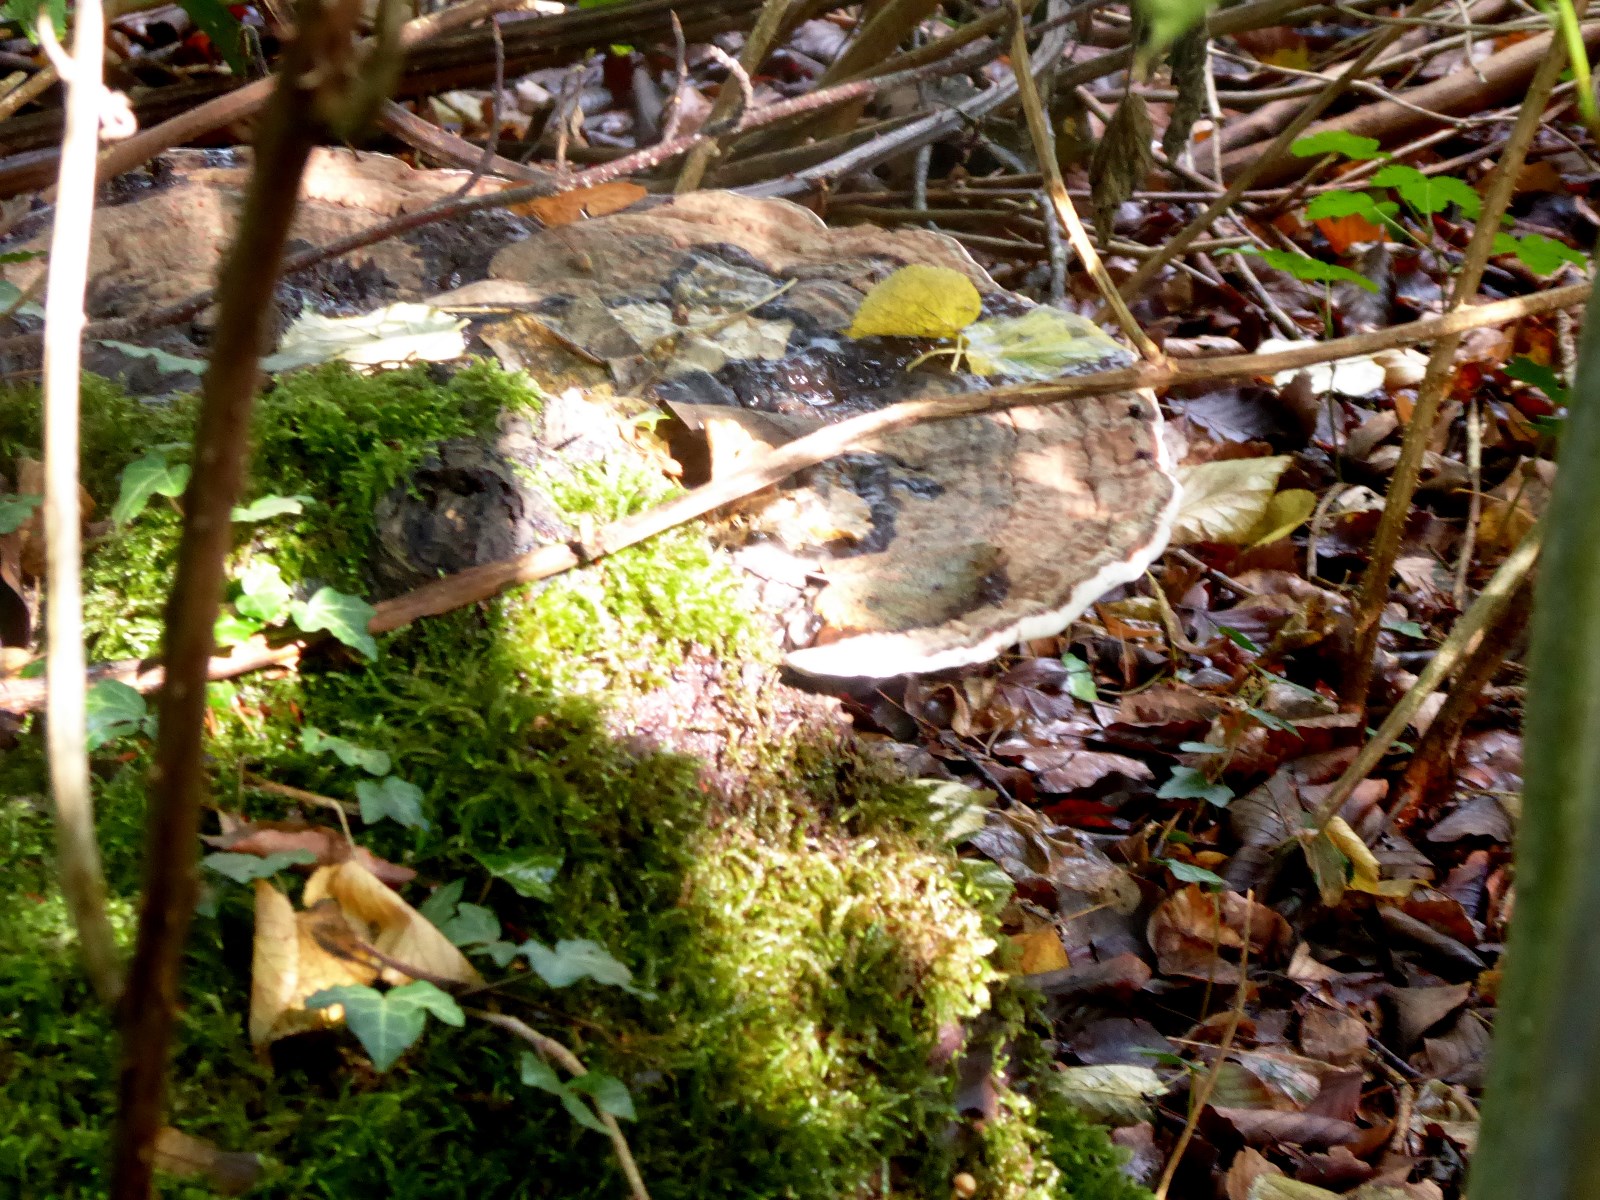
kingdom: Fungi
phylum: Basidiomycota
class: Agaricomycetes
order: Polyporales
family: Polyporaceae
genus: Ganoderma
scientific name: Ganoderma applanatum
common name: flad lakporesvamp
